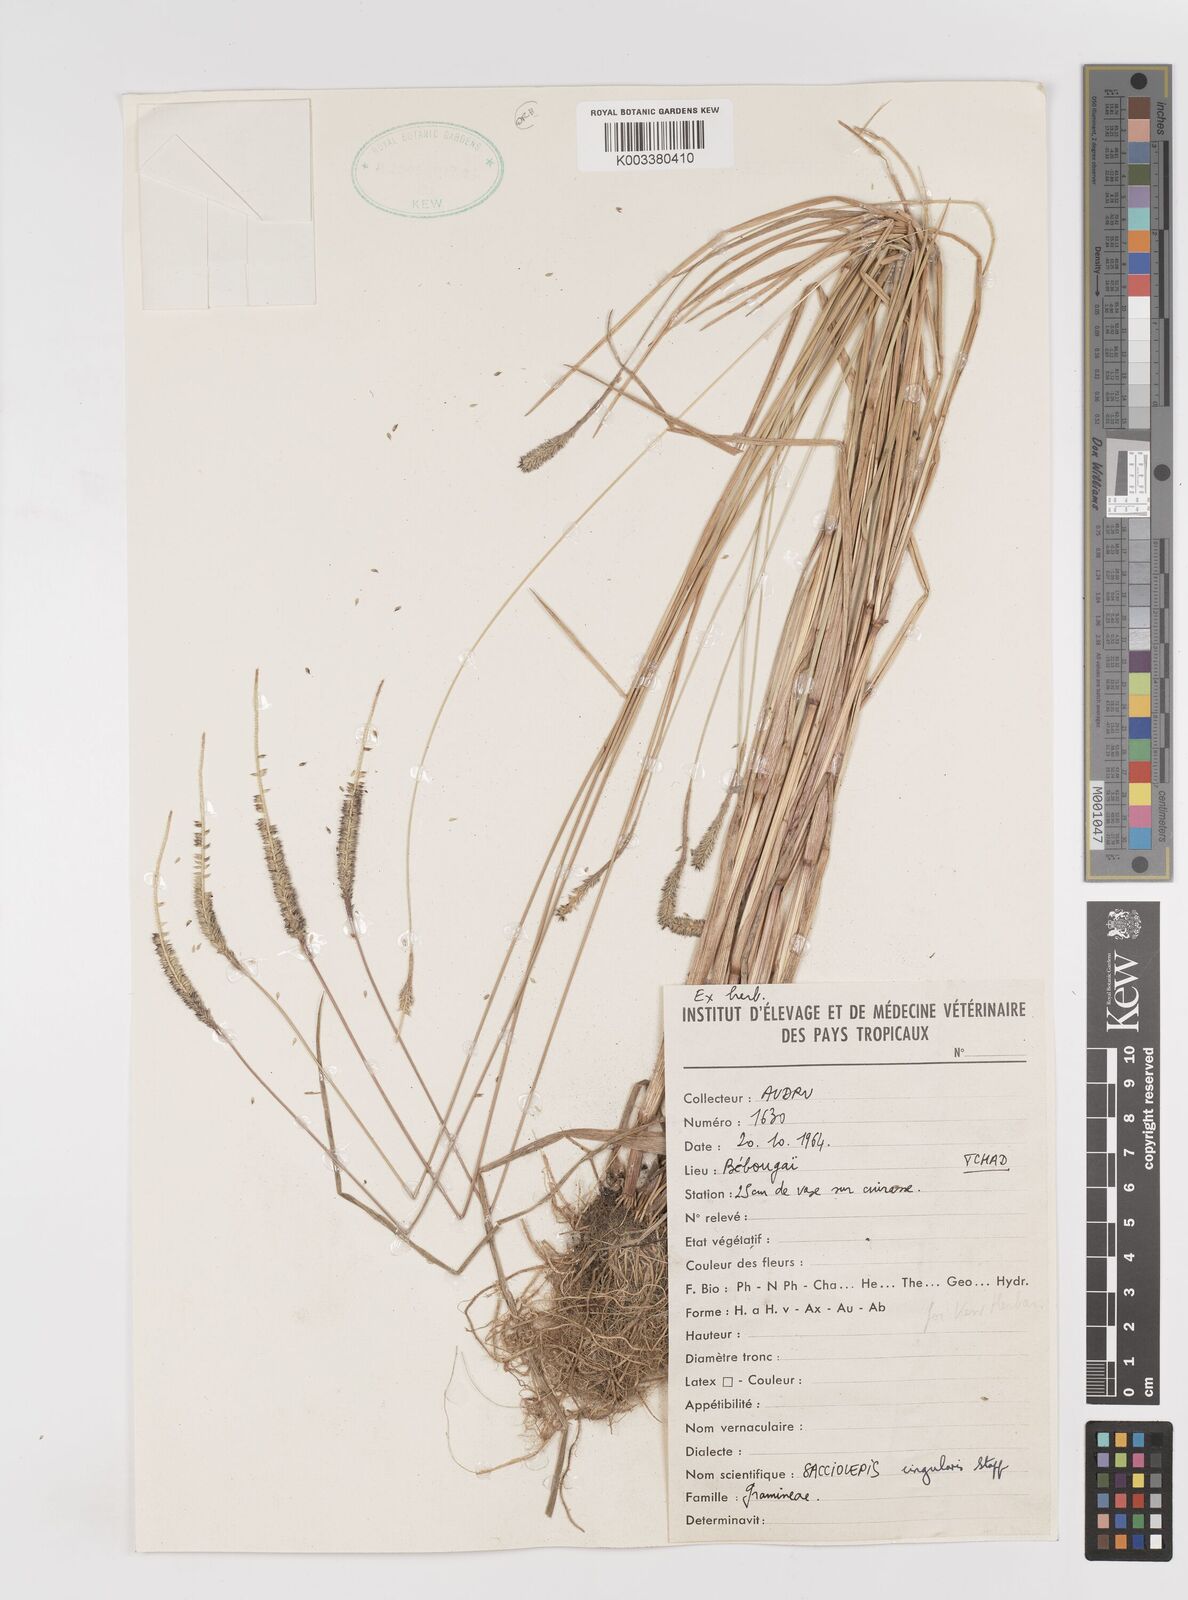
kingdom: Plantae
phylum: Tracheophyta
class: Liliopsida
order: Poales
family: Poaceae
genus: Sacciolepis
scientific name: Sacciolepis cingularis
